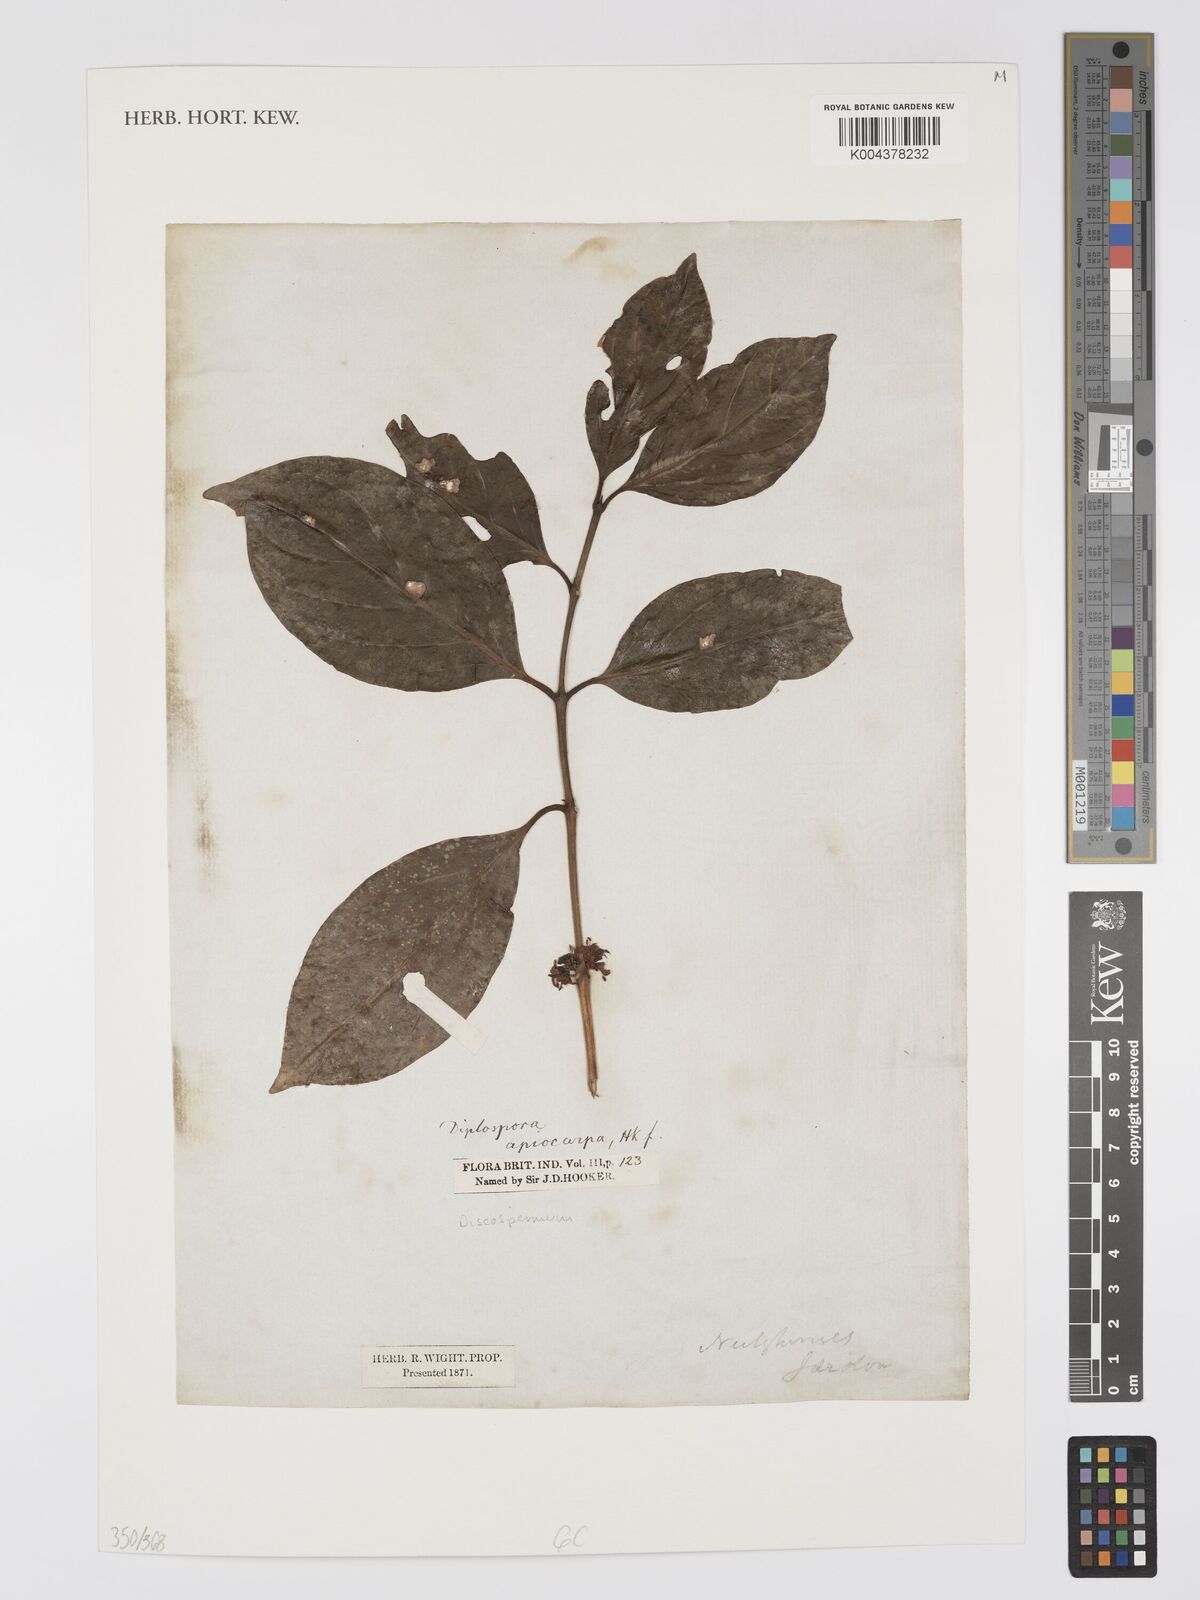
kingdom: Plantae
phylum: Tracheophyta
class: Magnoliopsida
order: Gentianales
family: Rubiaceae
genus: Discospermum
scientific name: Discospermum apiocarpum
